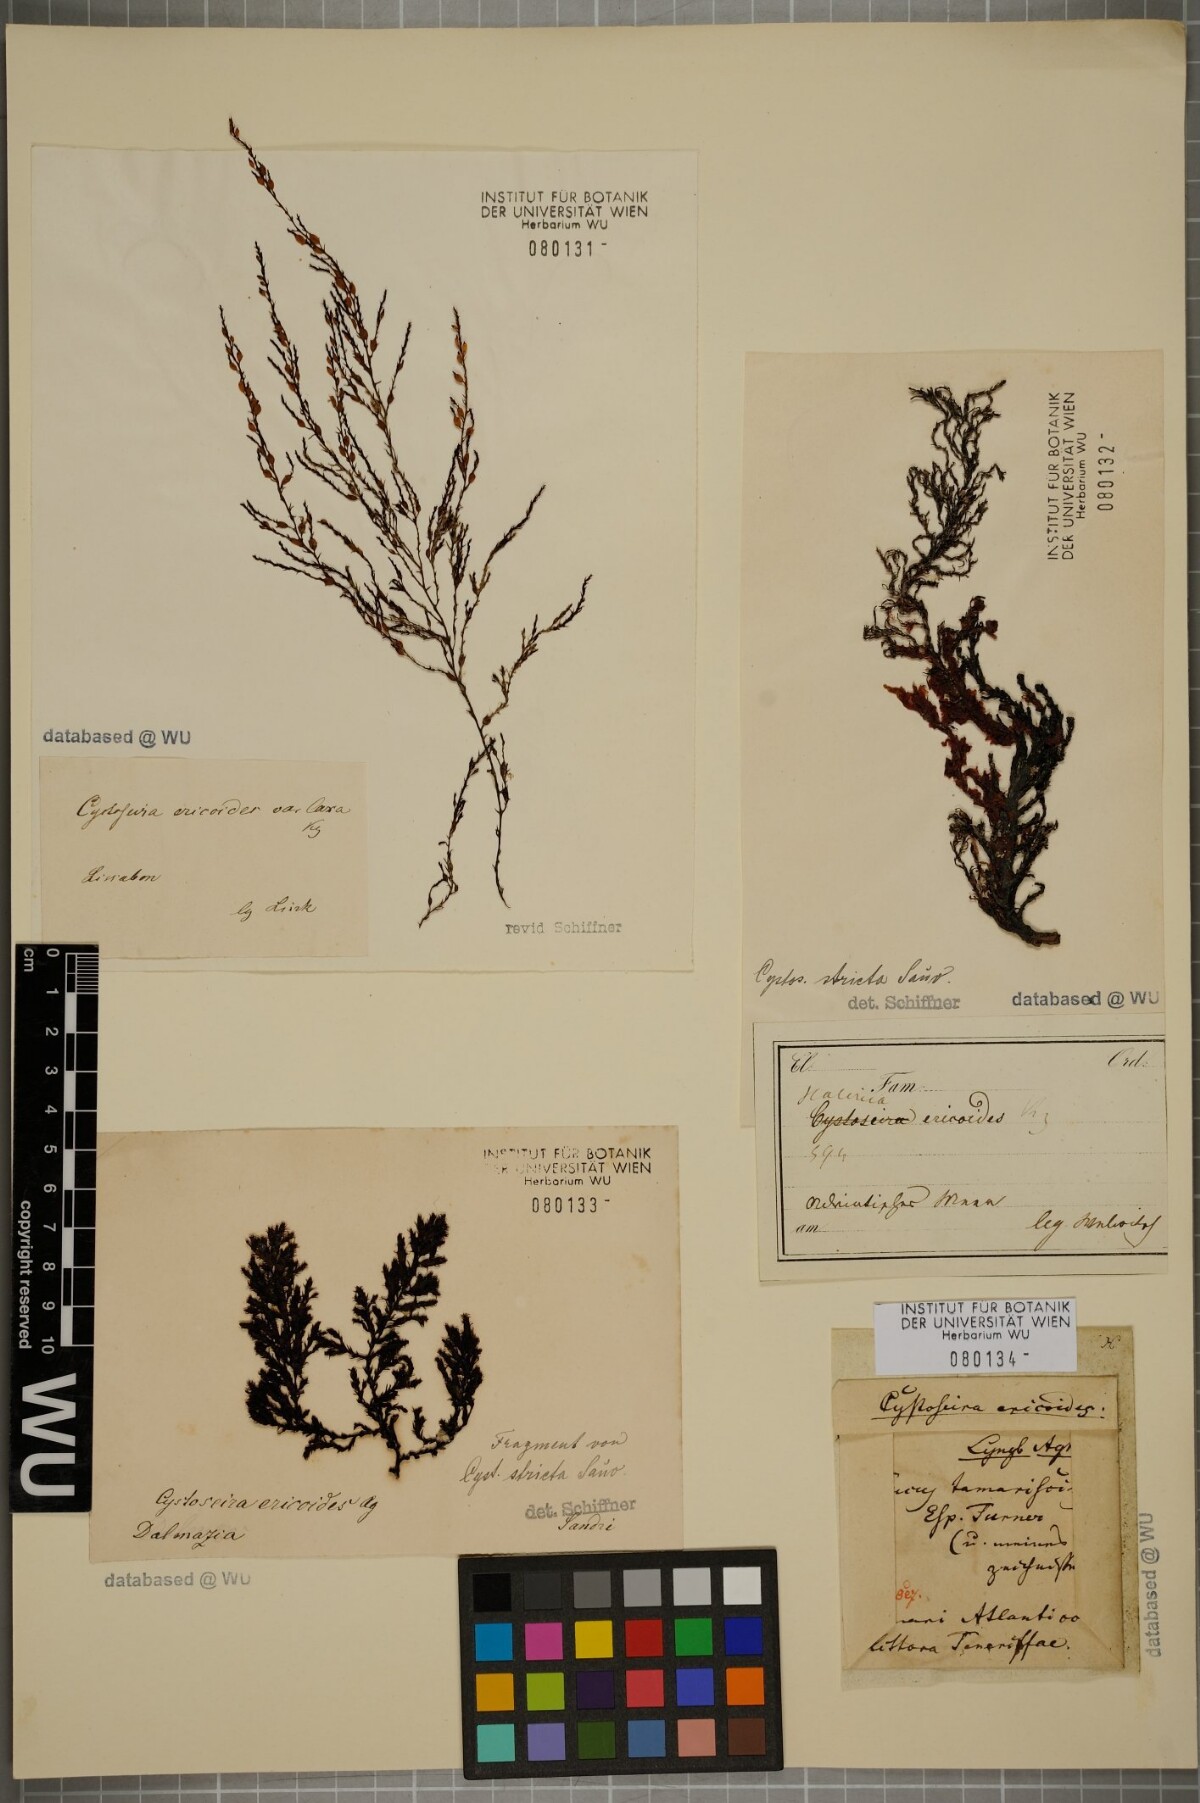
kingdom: Chromista
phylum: Ochrophyta
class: Phaeophyceae
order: Fucales
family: Sargassaceae
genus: Cystoseira
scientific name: Cystoseira Ericaria selaginoides
